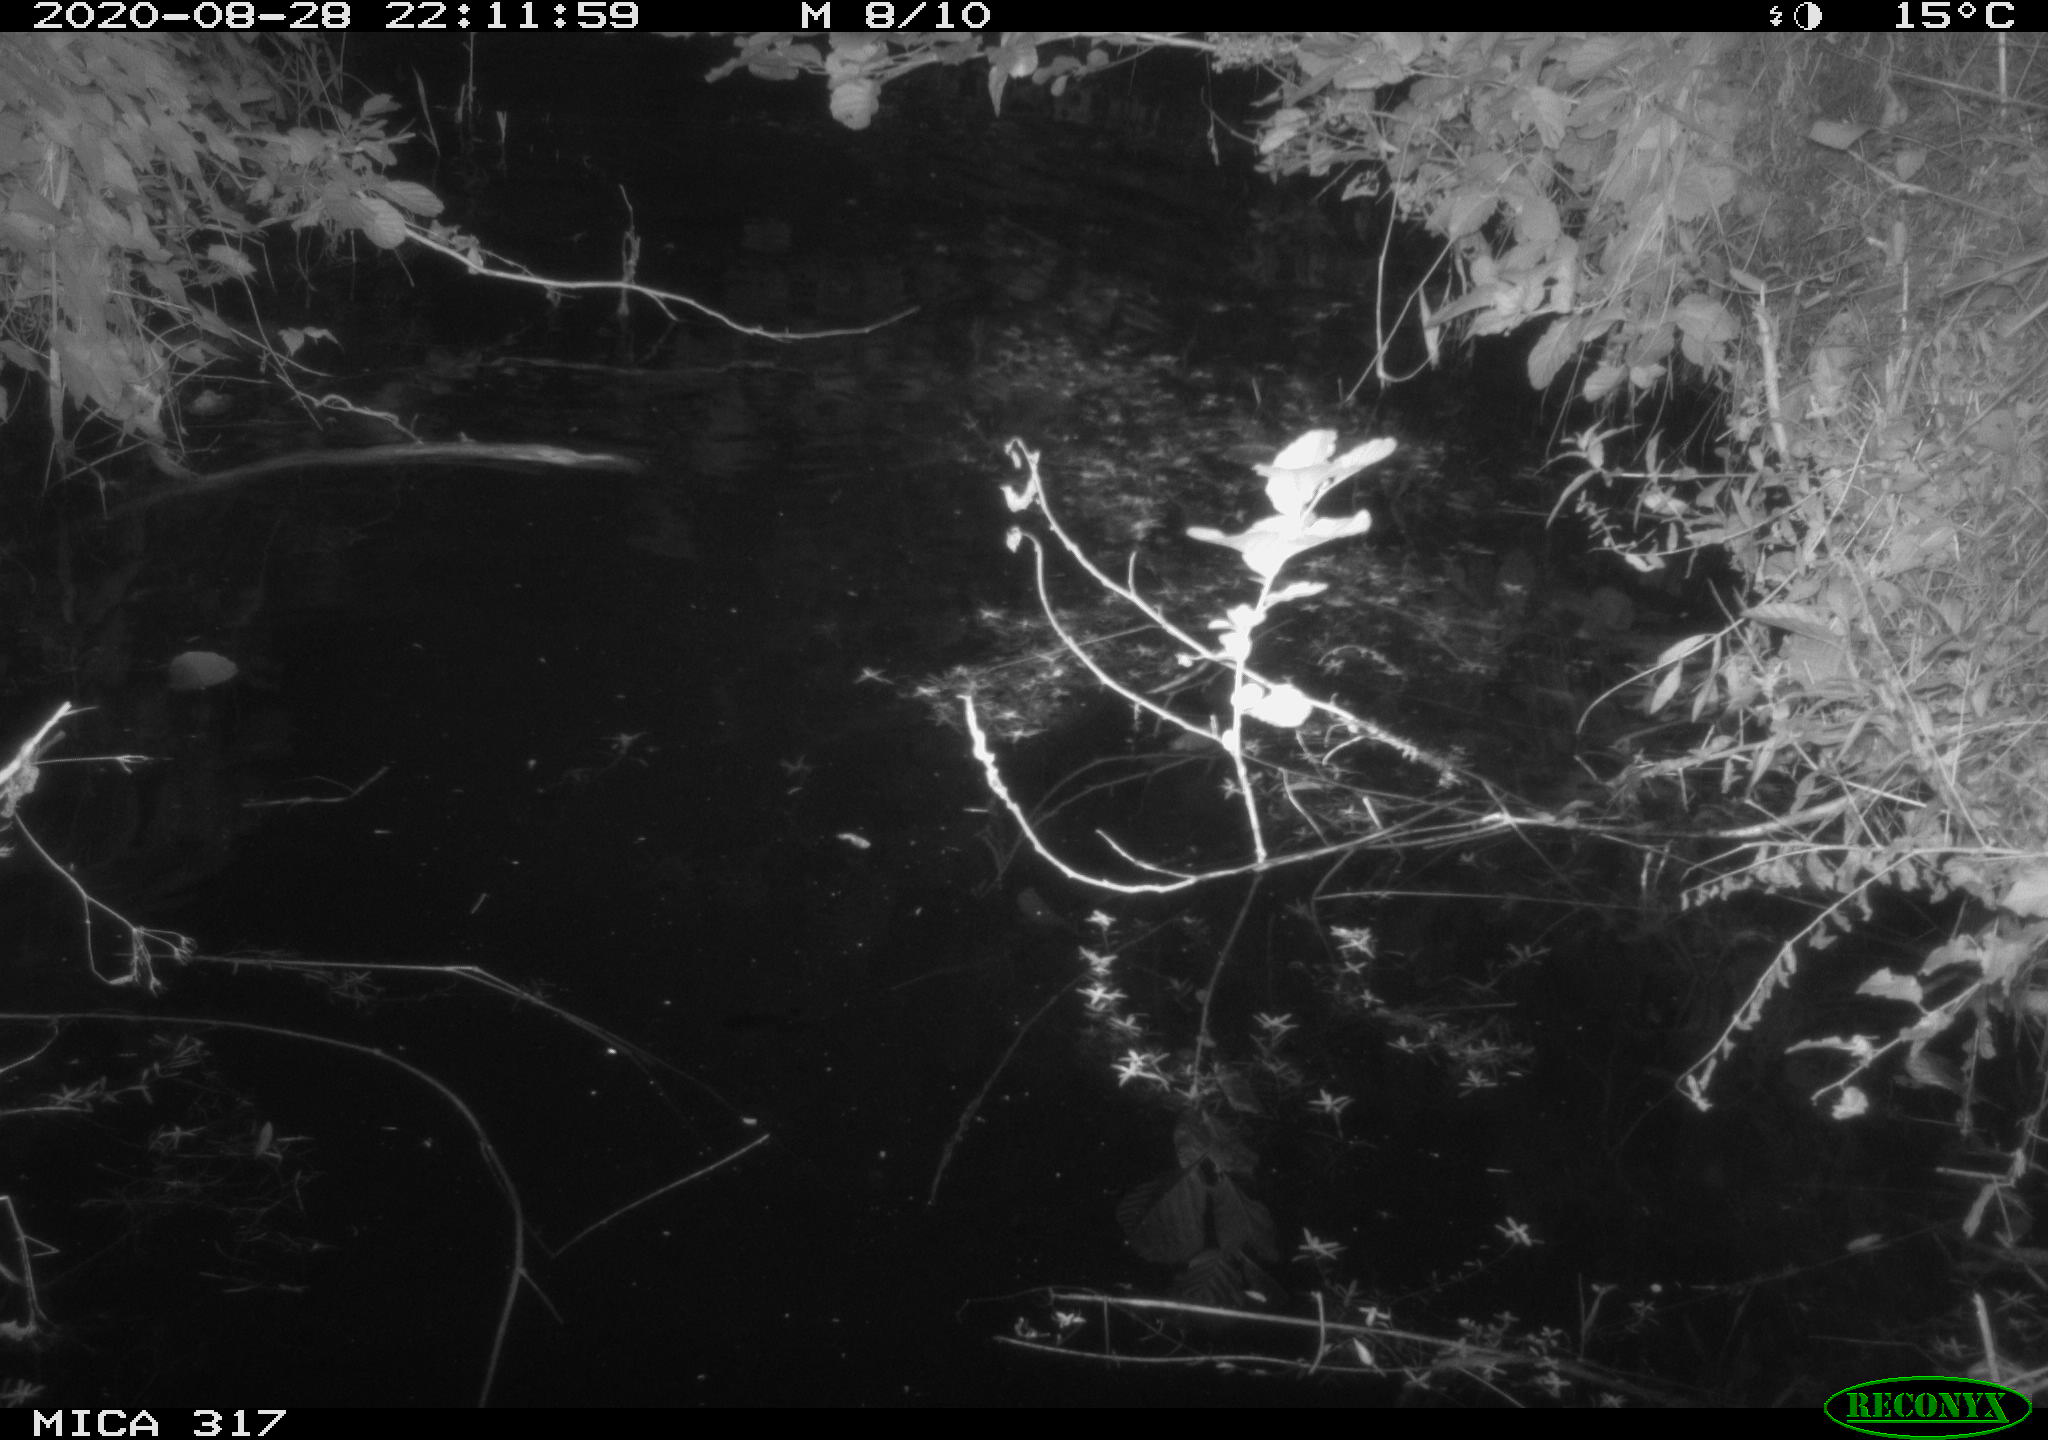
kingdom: Animalia
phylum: Chordata
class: Aves
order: Anseriformes
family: Anatidae
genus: Anas
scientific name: Anas platyrhynchos
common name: Mallard
